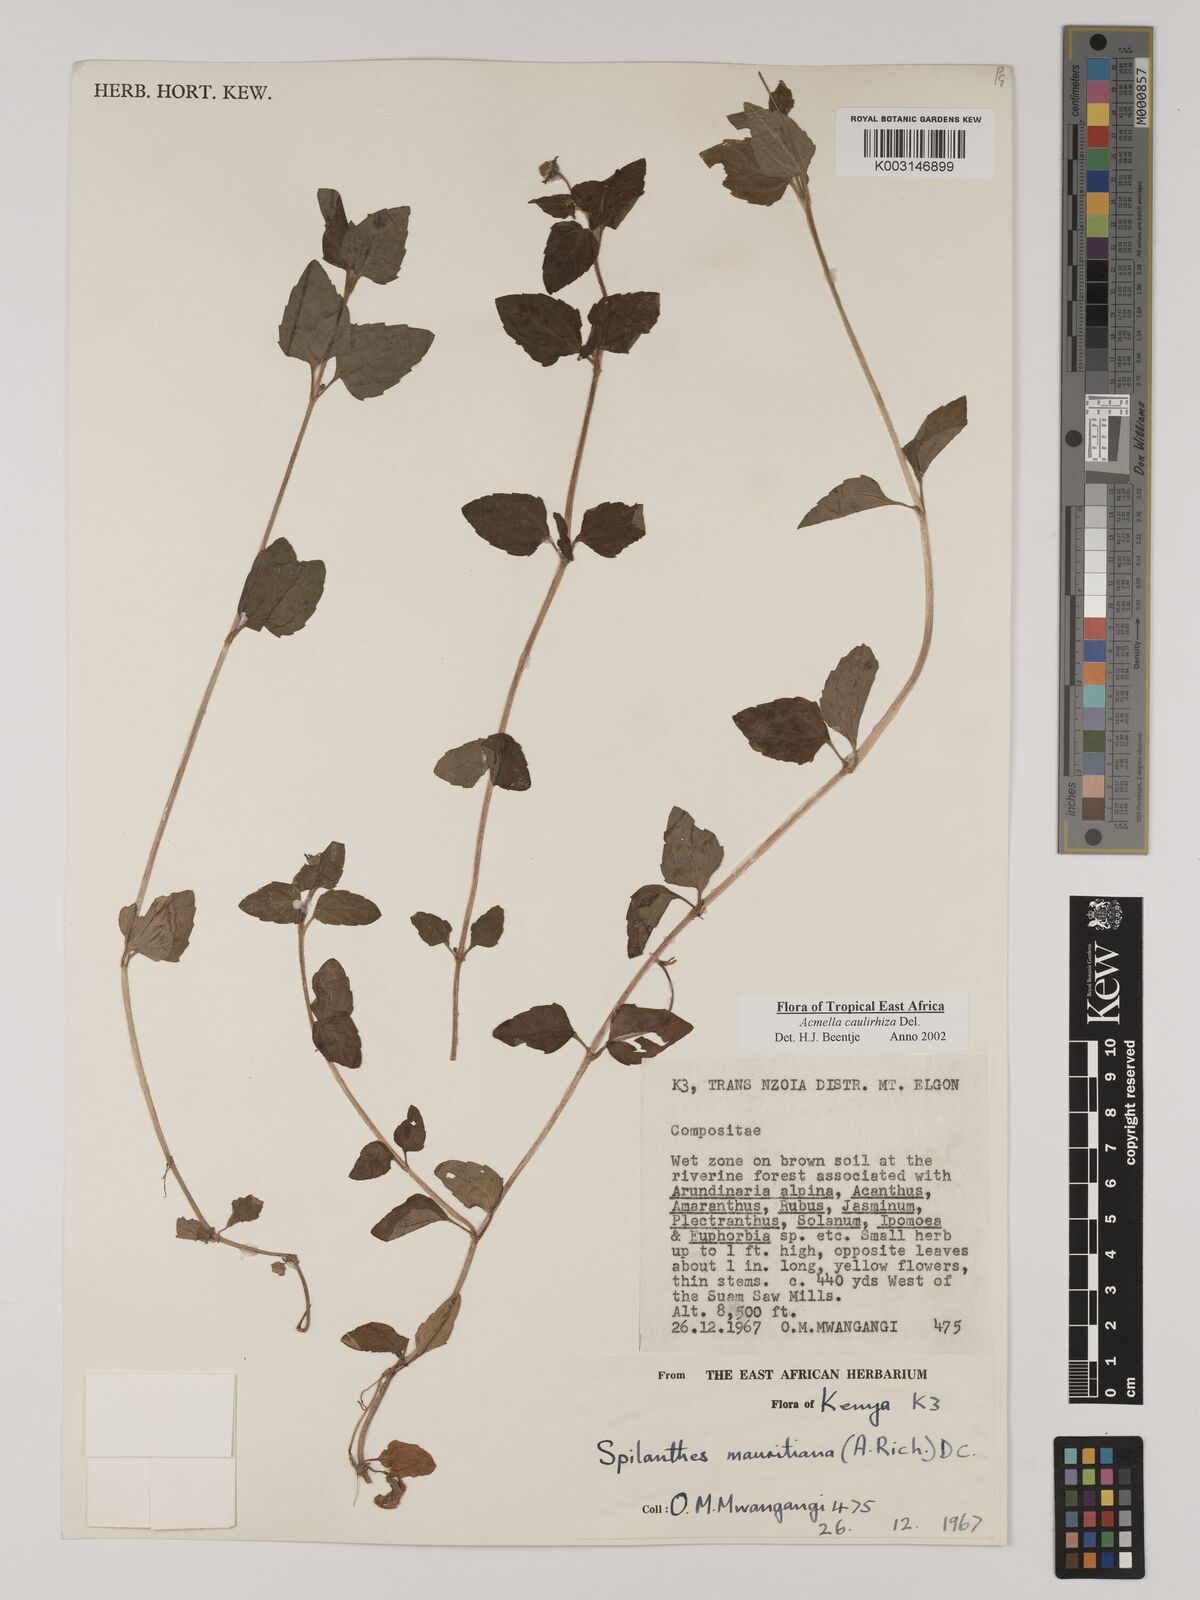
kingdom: Plantae
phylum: Tracheophyta
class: Magnoliopsida
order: Asterales
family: Asteraceae
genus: Acmella
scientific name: Acmella caulirhiza
